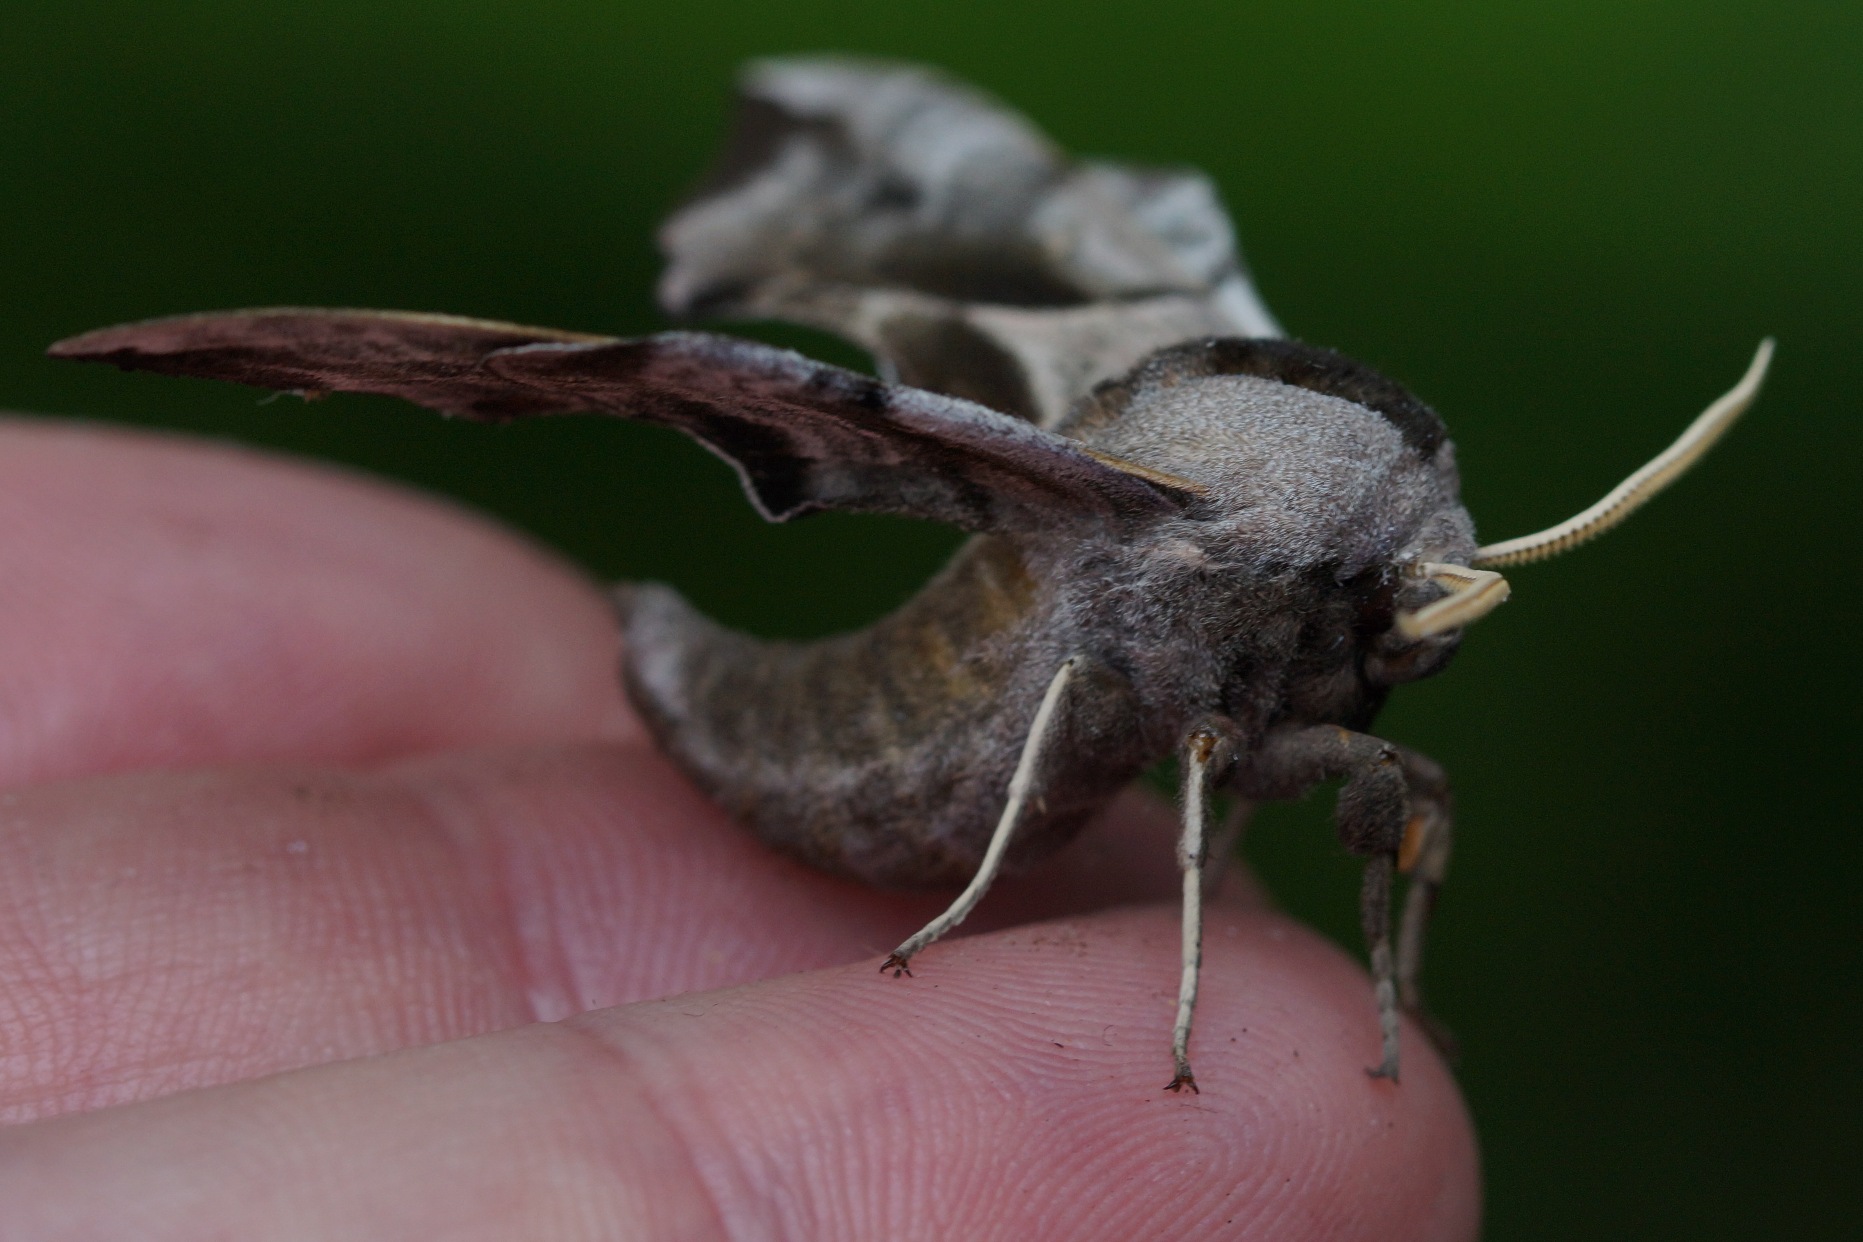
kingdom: Animalia
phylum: Arthropoda
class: Insecta
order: Lepidoptera
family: Sphingidae
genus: Smerinthus
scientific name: Smerinthus ocellata
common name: Aftenpåfugleøje
